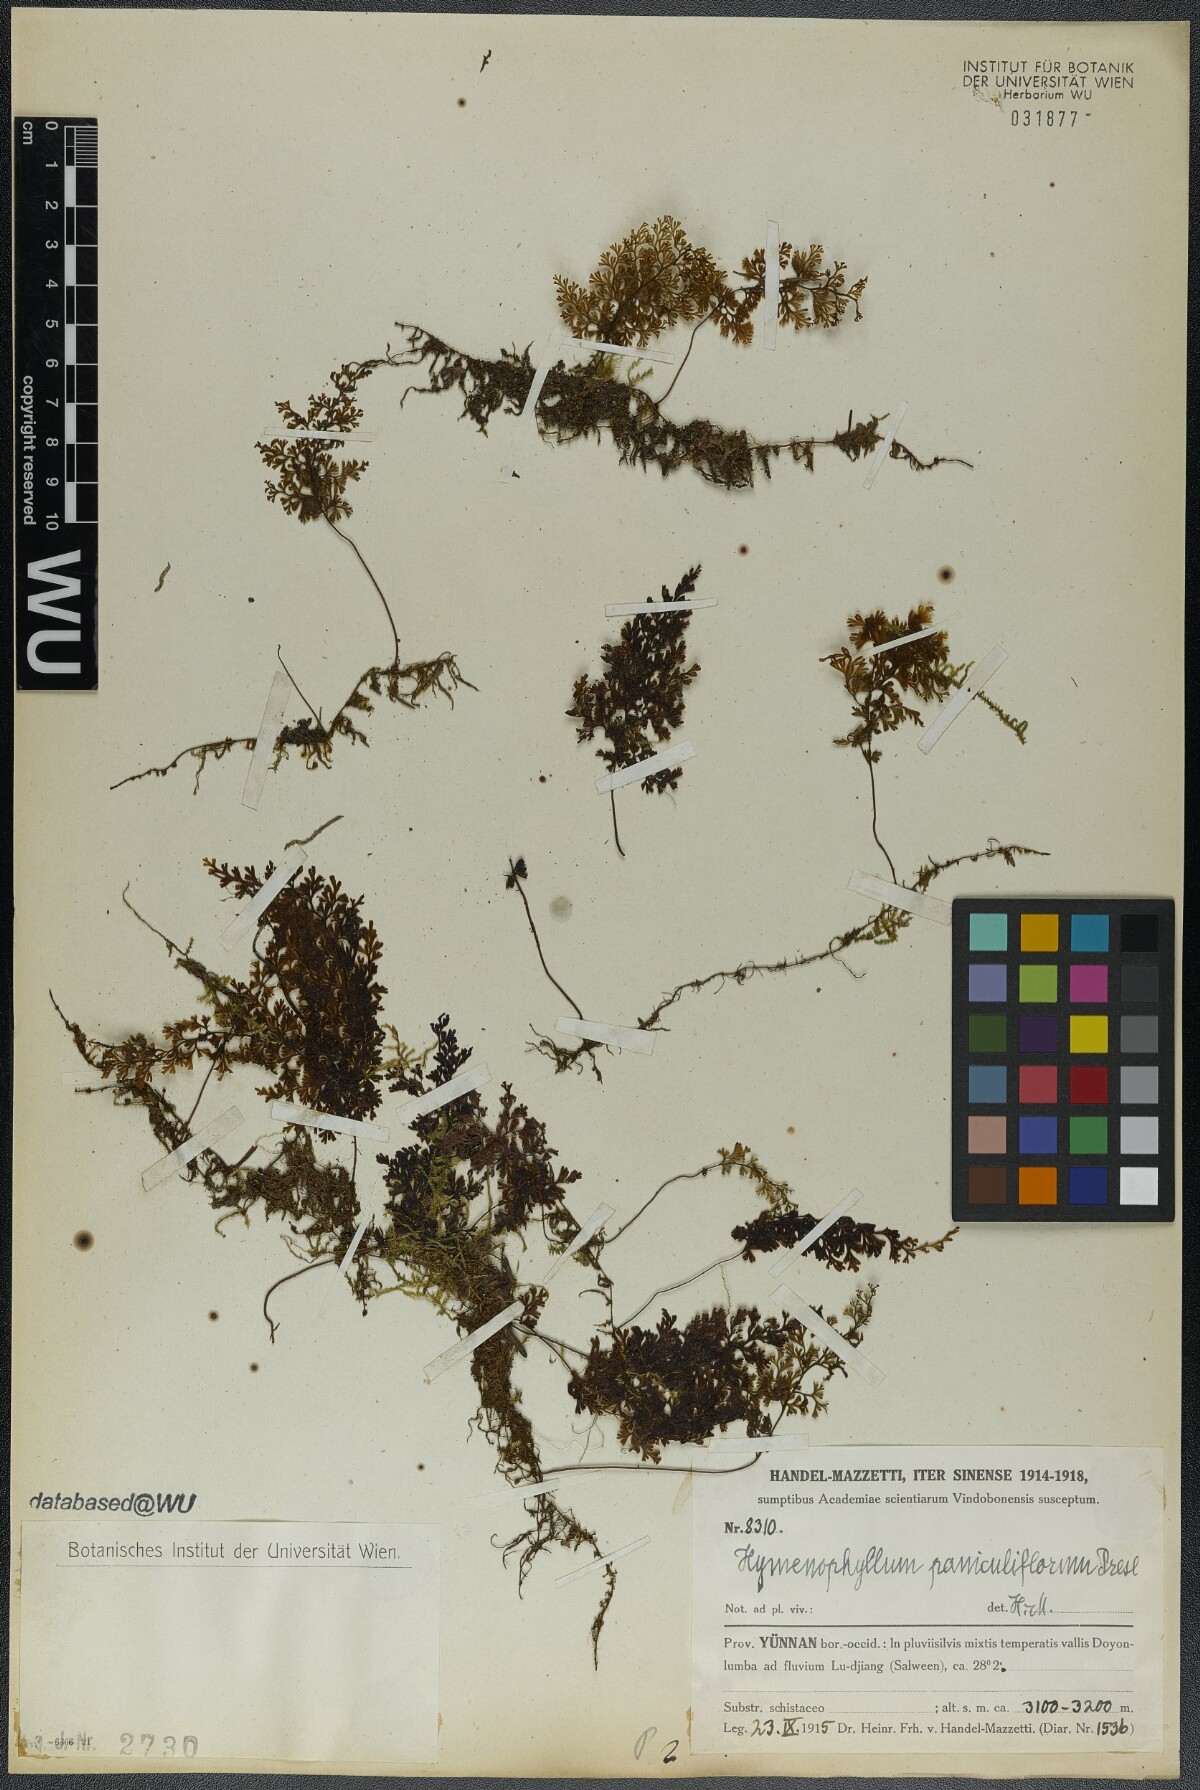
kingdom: Plantae
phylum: Tracheophyta
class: Polypodiopsida
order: Hymenophyllales
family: Hymenophyllaceae
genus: Hymenophyllum
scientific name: Hymenophyllum paniculiflorum
